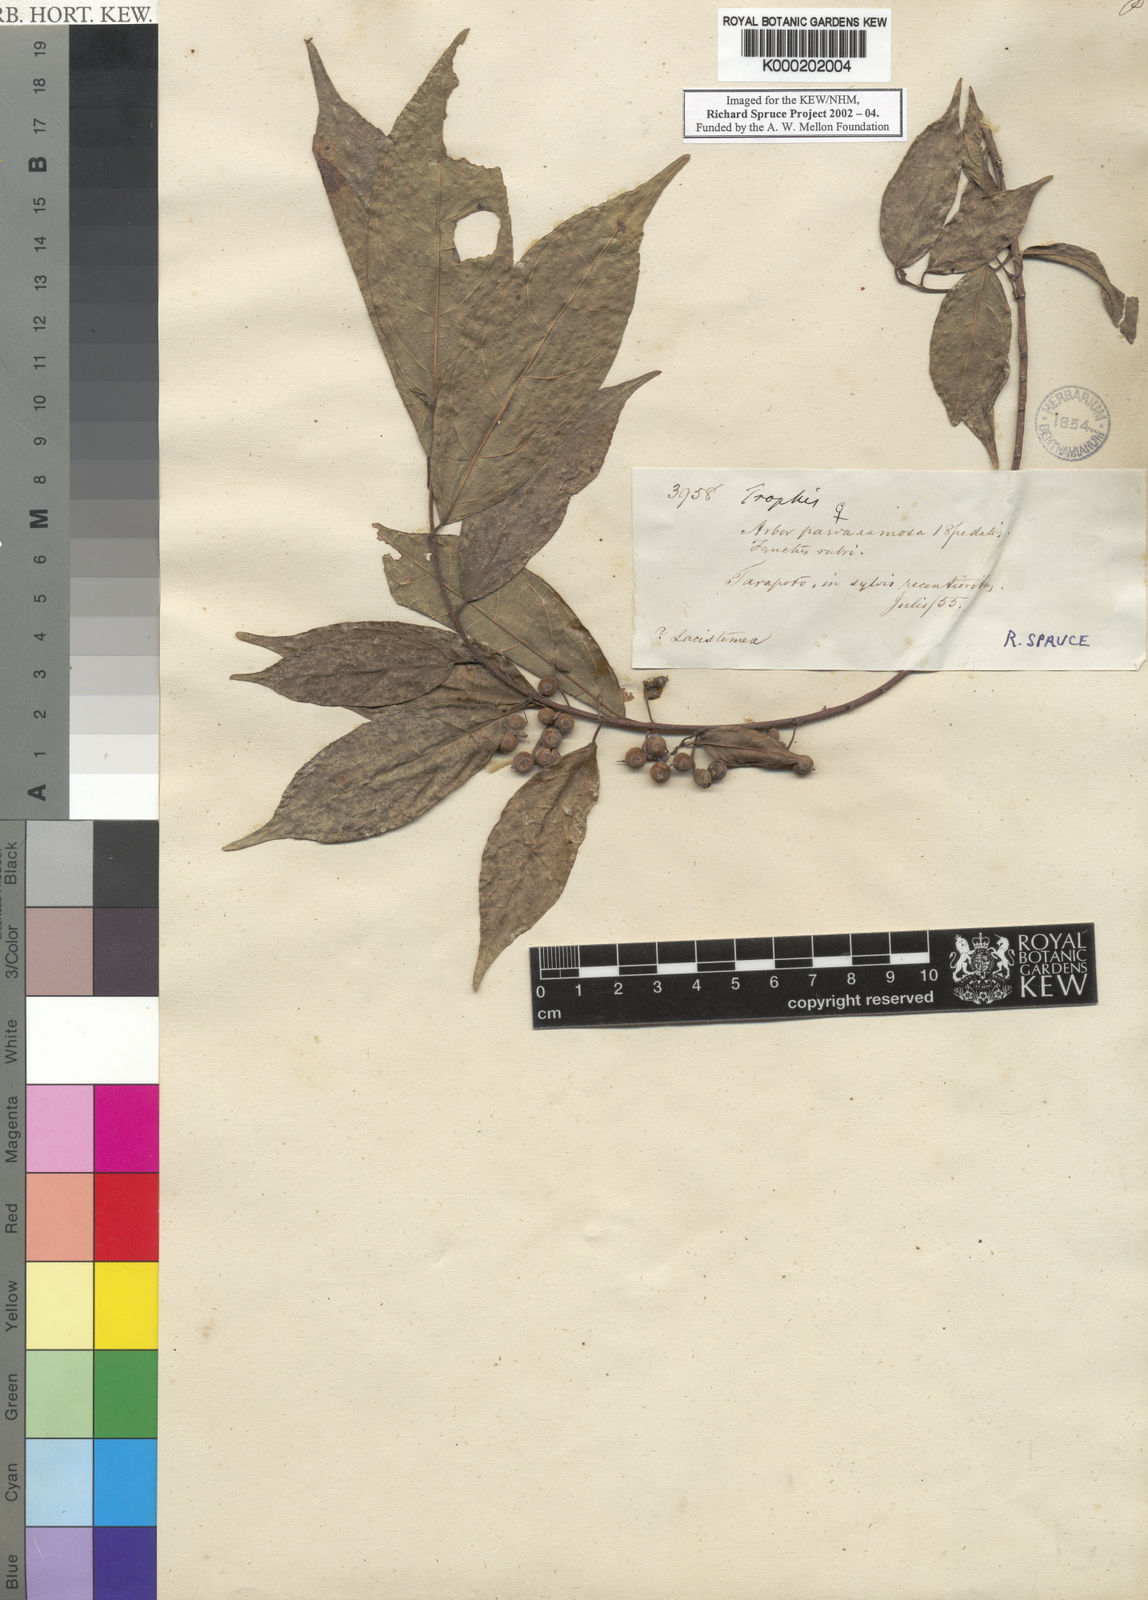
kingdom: Plantae
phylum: Tracheophyta
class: Magnoliopsida
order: Rosales
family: Moraceae
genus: Trophis
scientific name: Trophis
